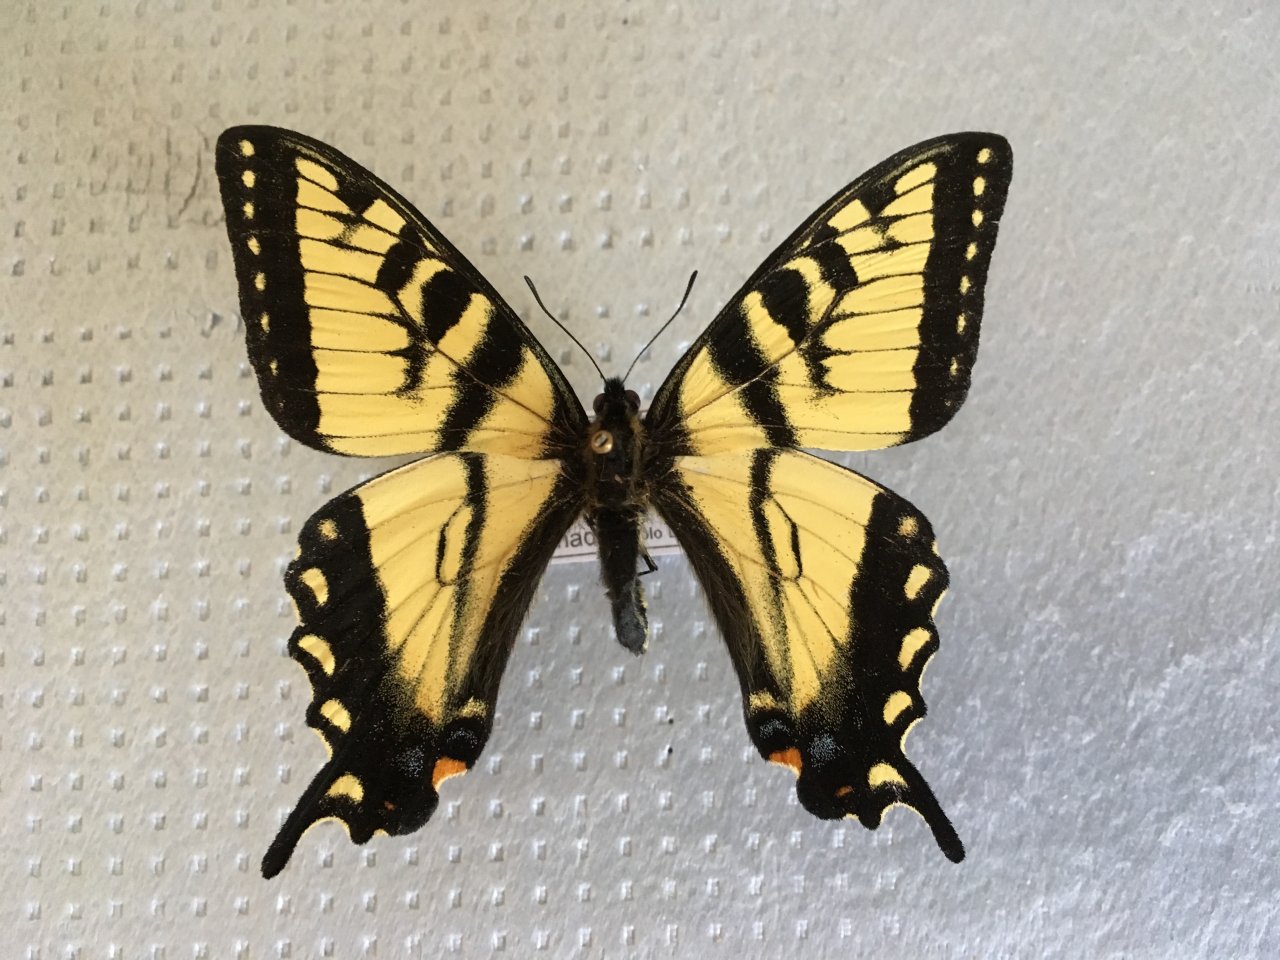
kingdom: Animalia
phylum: Arthropoda
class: Insecta
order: Lepidoptera
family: Papilionidae
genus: Pterourus
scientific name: Pterourus canadensis
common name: Canadian Tiger Swallowtail
